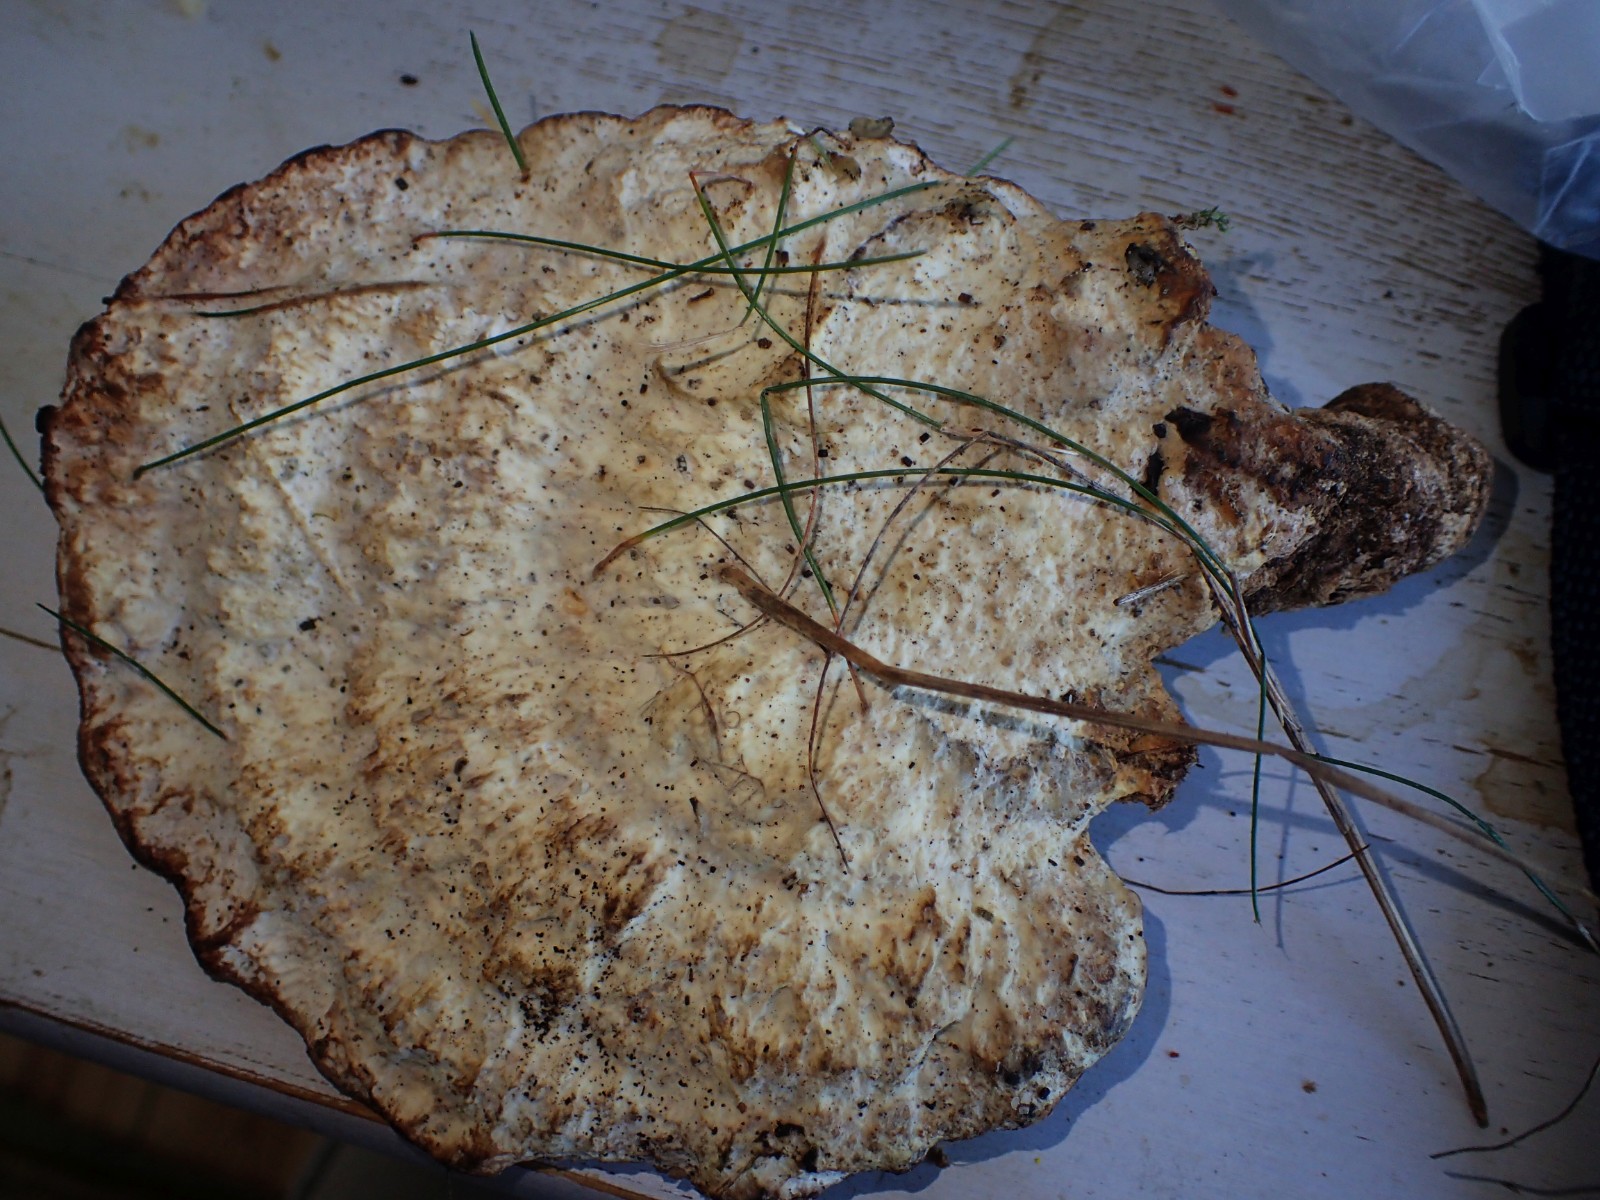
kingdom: Fungi
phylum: Basidiomycota
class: Agaricomycetes
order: Polyporales
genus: Calcipostia
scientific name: Calcipostia guttulata
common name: dråbe-kødporesvamp
